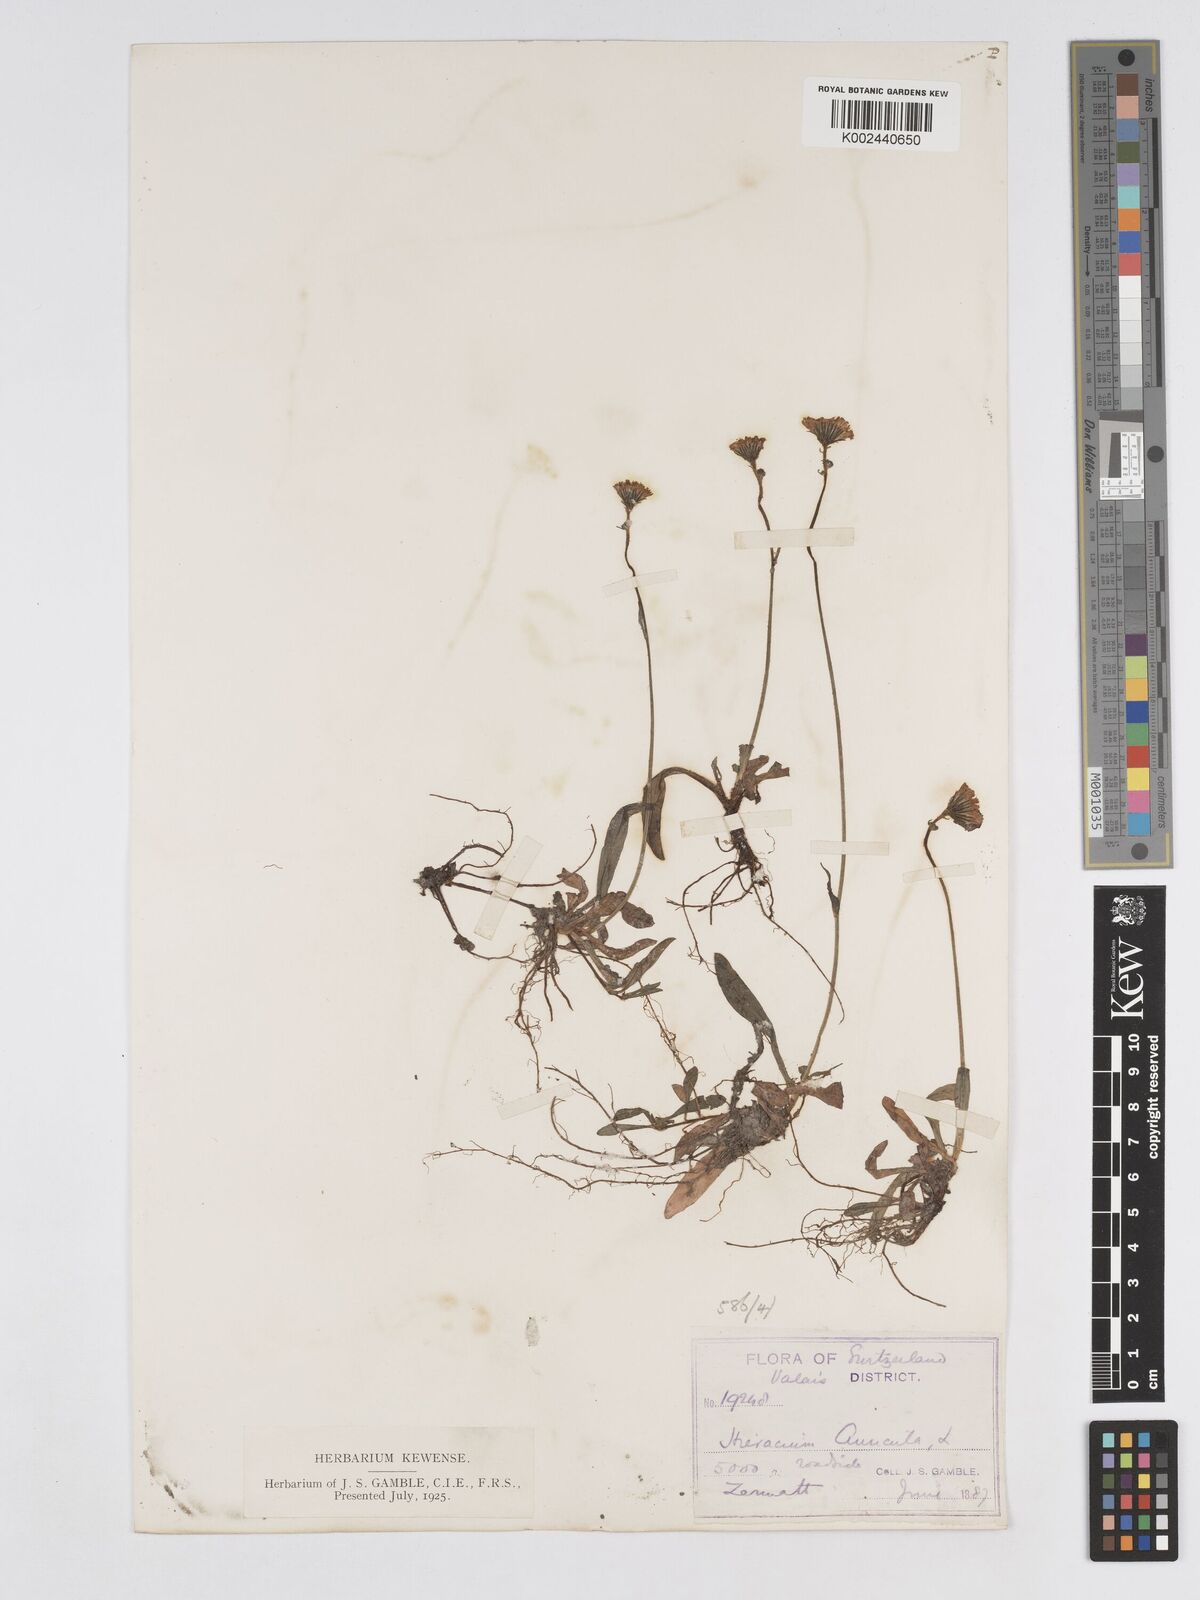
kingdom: Plantae
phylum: Tracheophyta
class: Magnoliopsida
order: Asterales
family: Asteraceae
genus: Pilosella
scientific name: Pilosella floribunda
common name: Glaucous hawkweed
